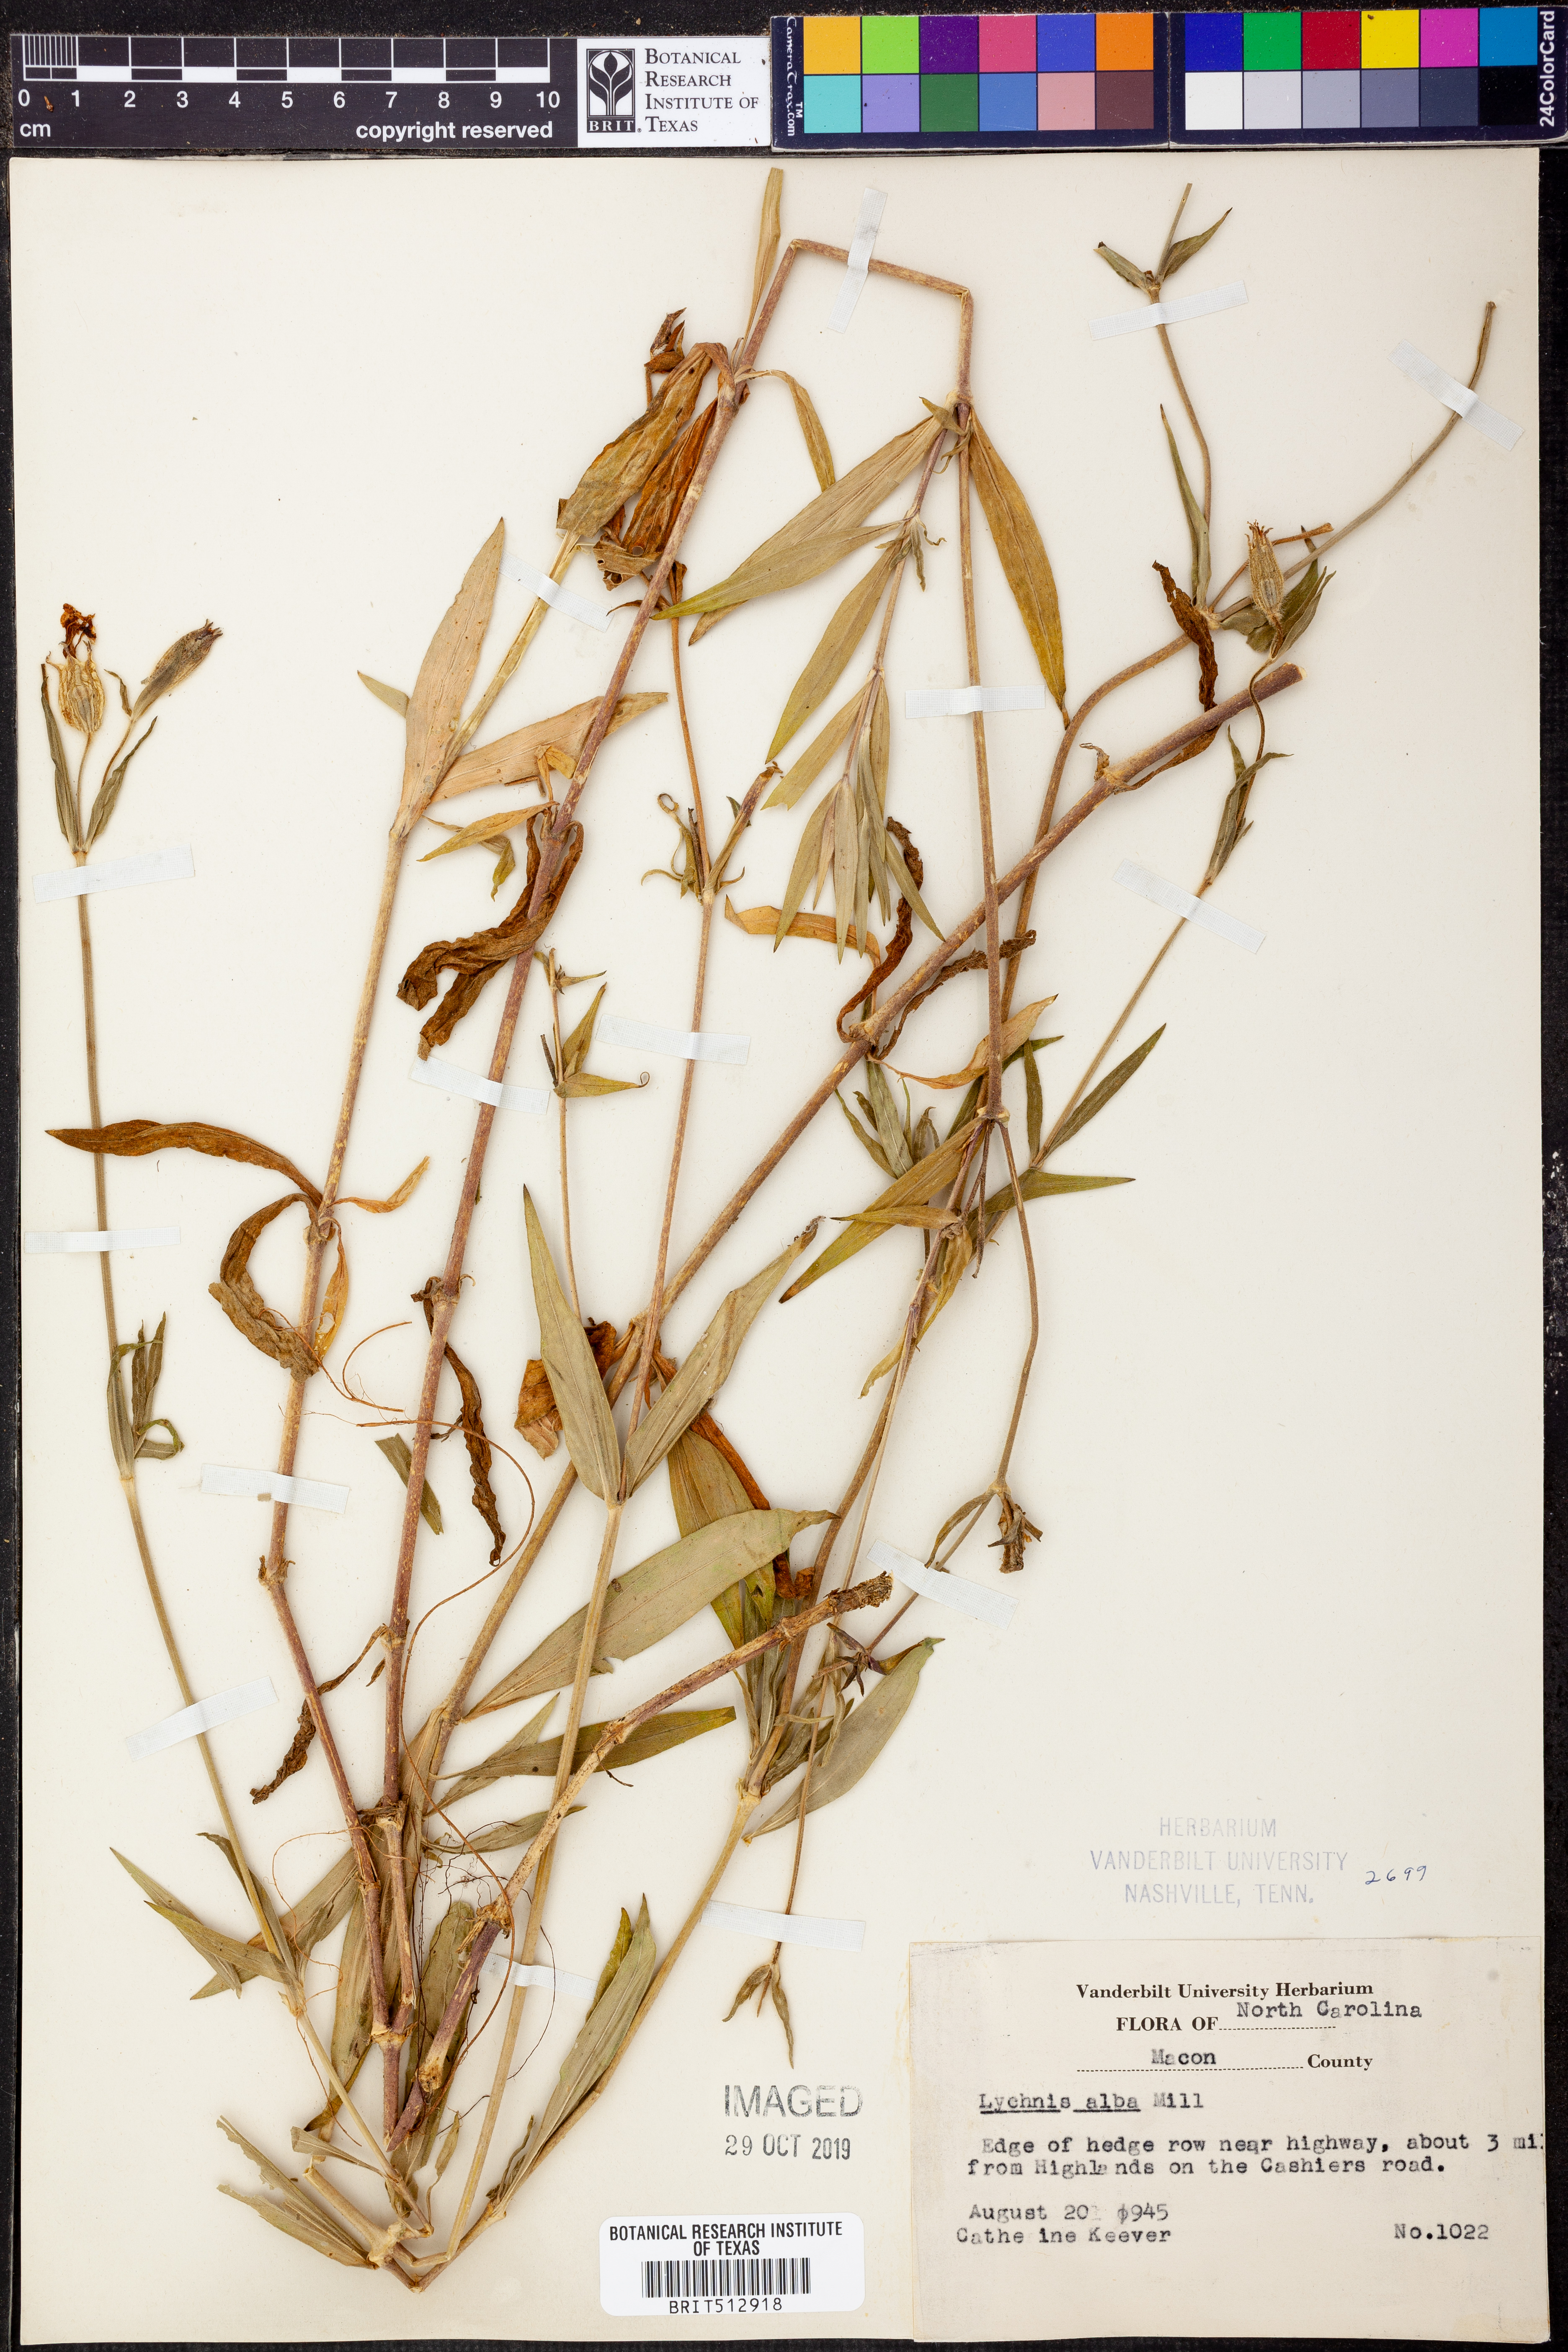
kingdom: Plantae
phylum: Tracheophyta
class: Magnoliopsida
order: Caryophyllales
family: Caryophyllaceae
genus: Silene
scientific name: Silene latifolia
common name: White campion
